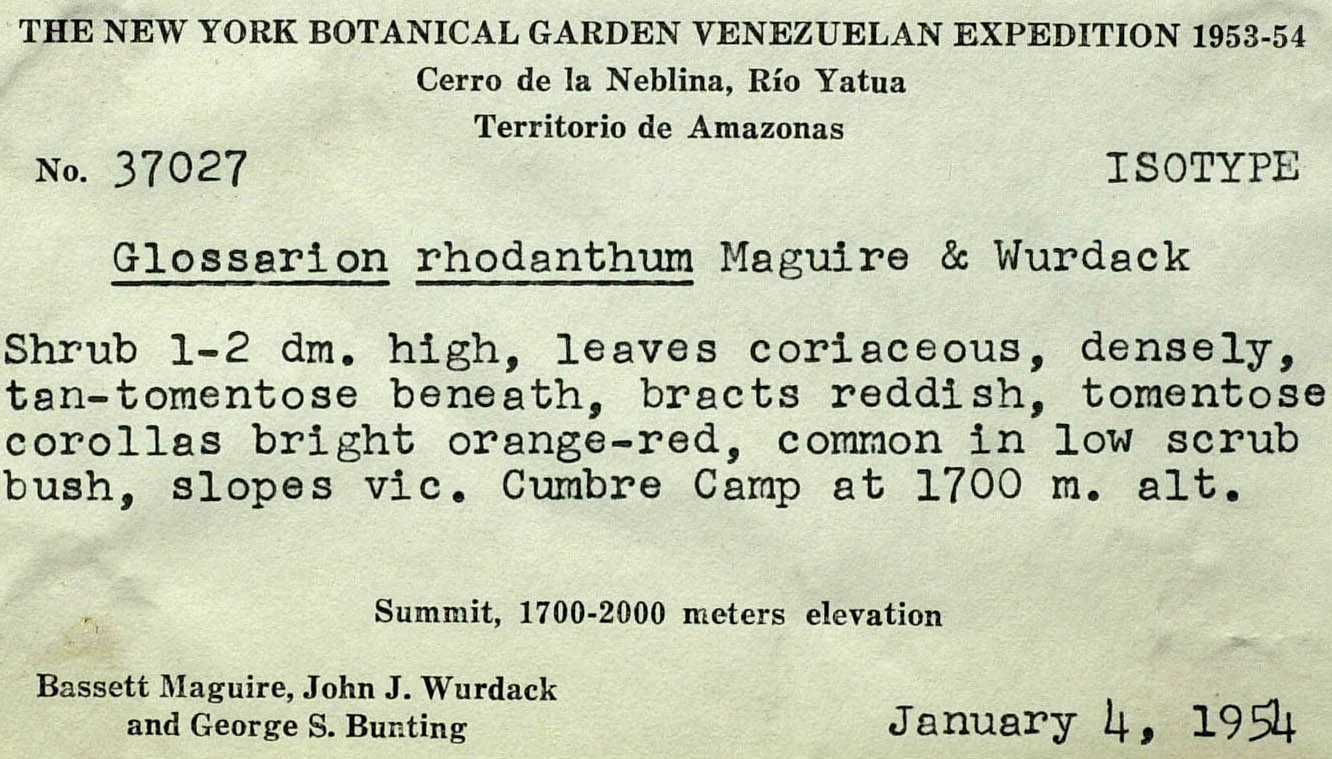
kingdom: Plantae
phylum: Tracheophyta
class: Magnoliopsida
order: Asterales
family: Asteraceae
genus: Glossarion
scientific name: Glossarion rhodanthum
